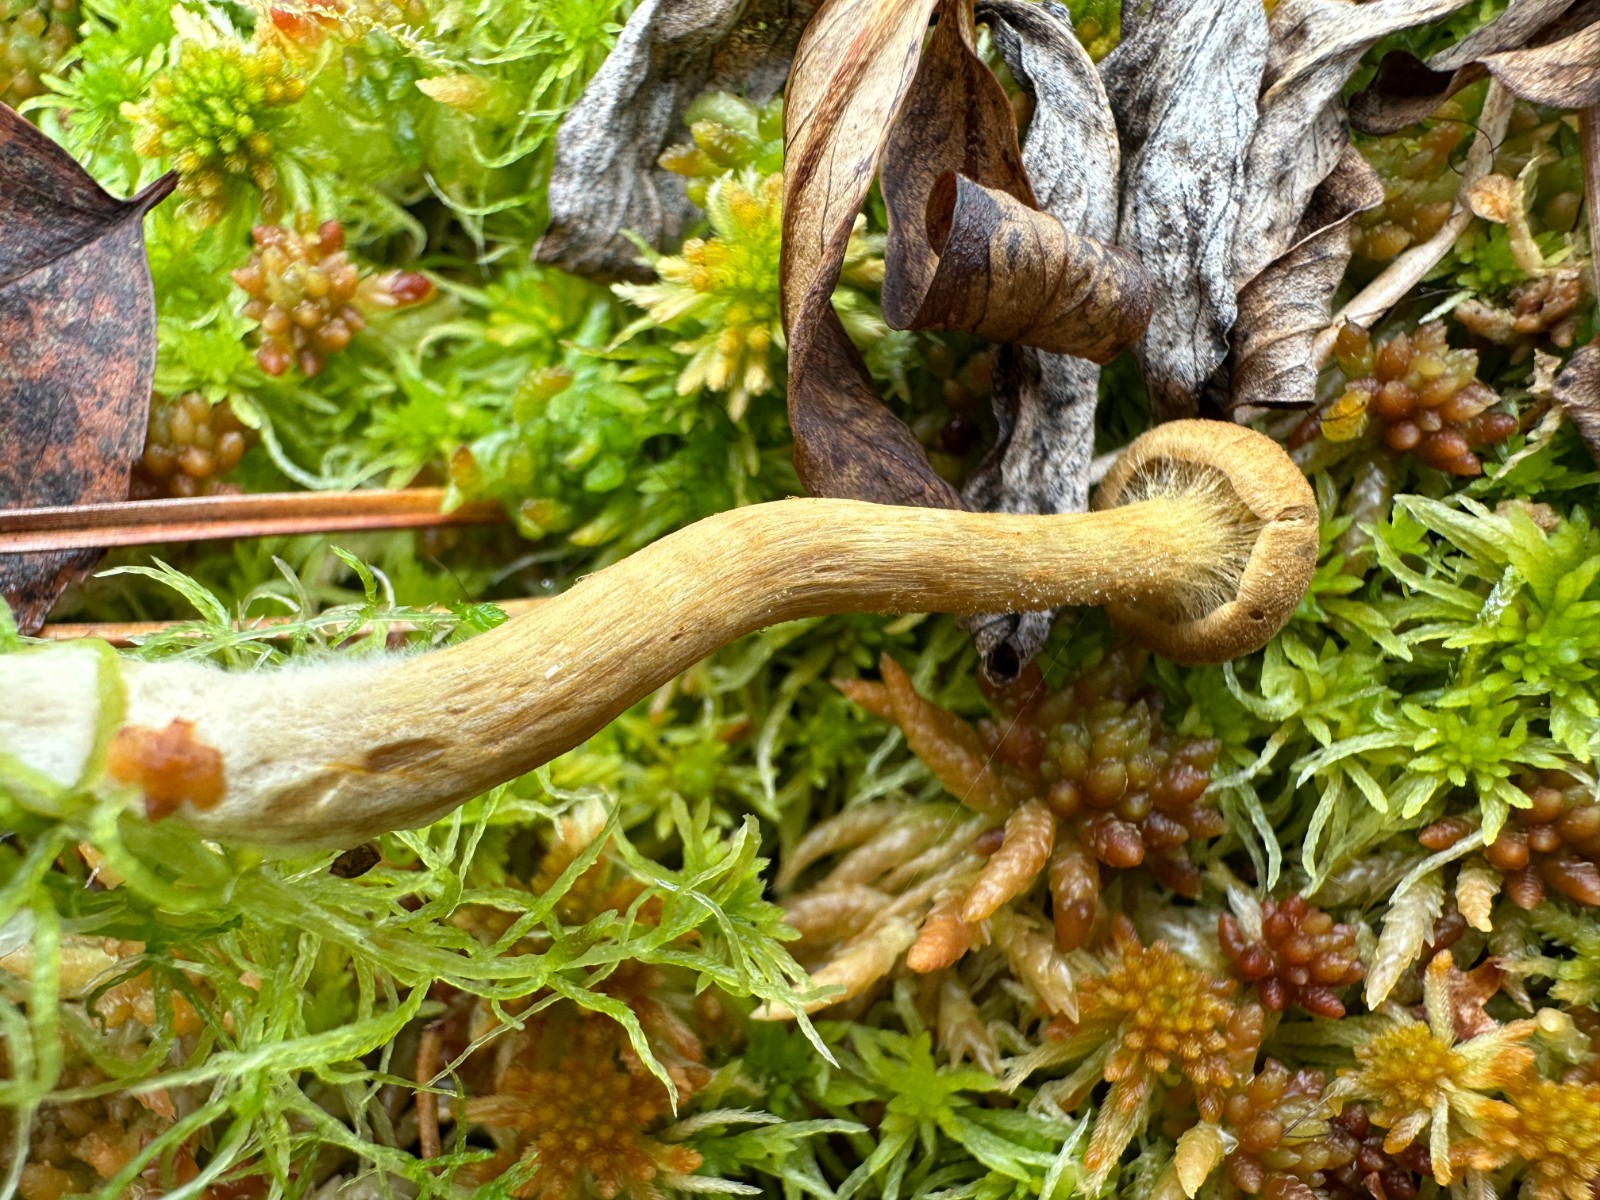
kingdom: Fungi
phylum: Basidiomycota
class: Agaricomycetes
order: Agaricales
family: Cortinariaceae
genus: Cortinarius
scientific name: Cortinarius
